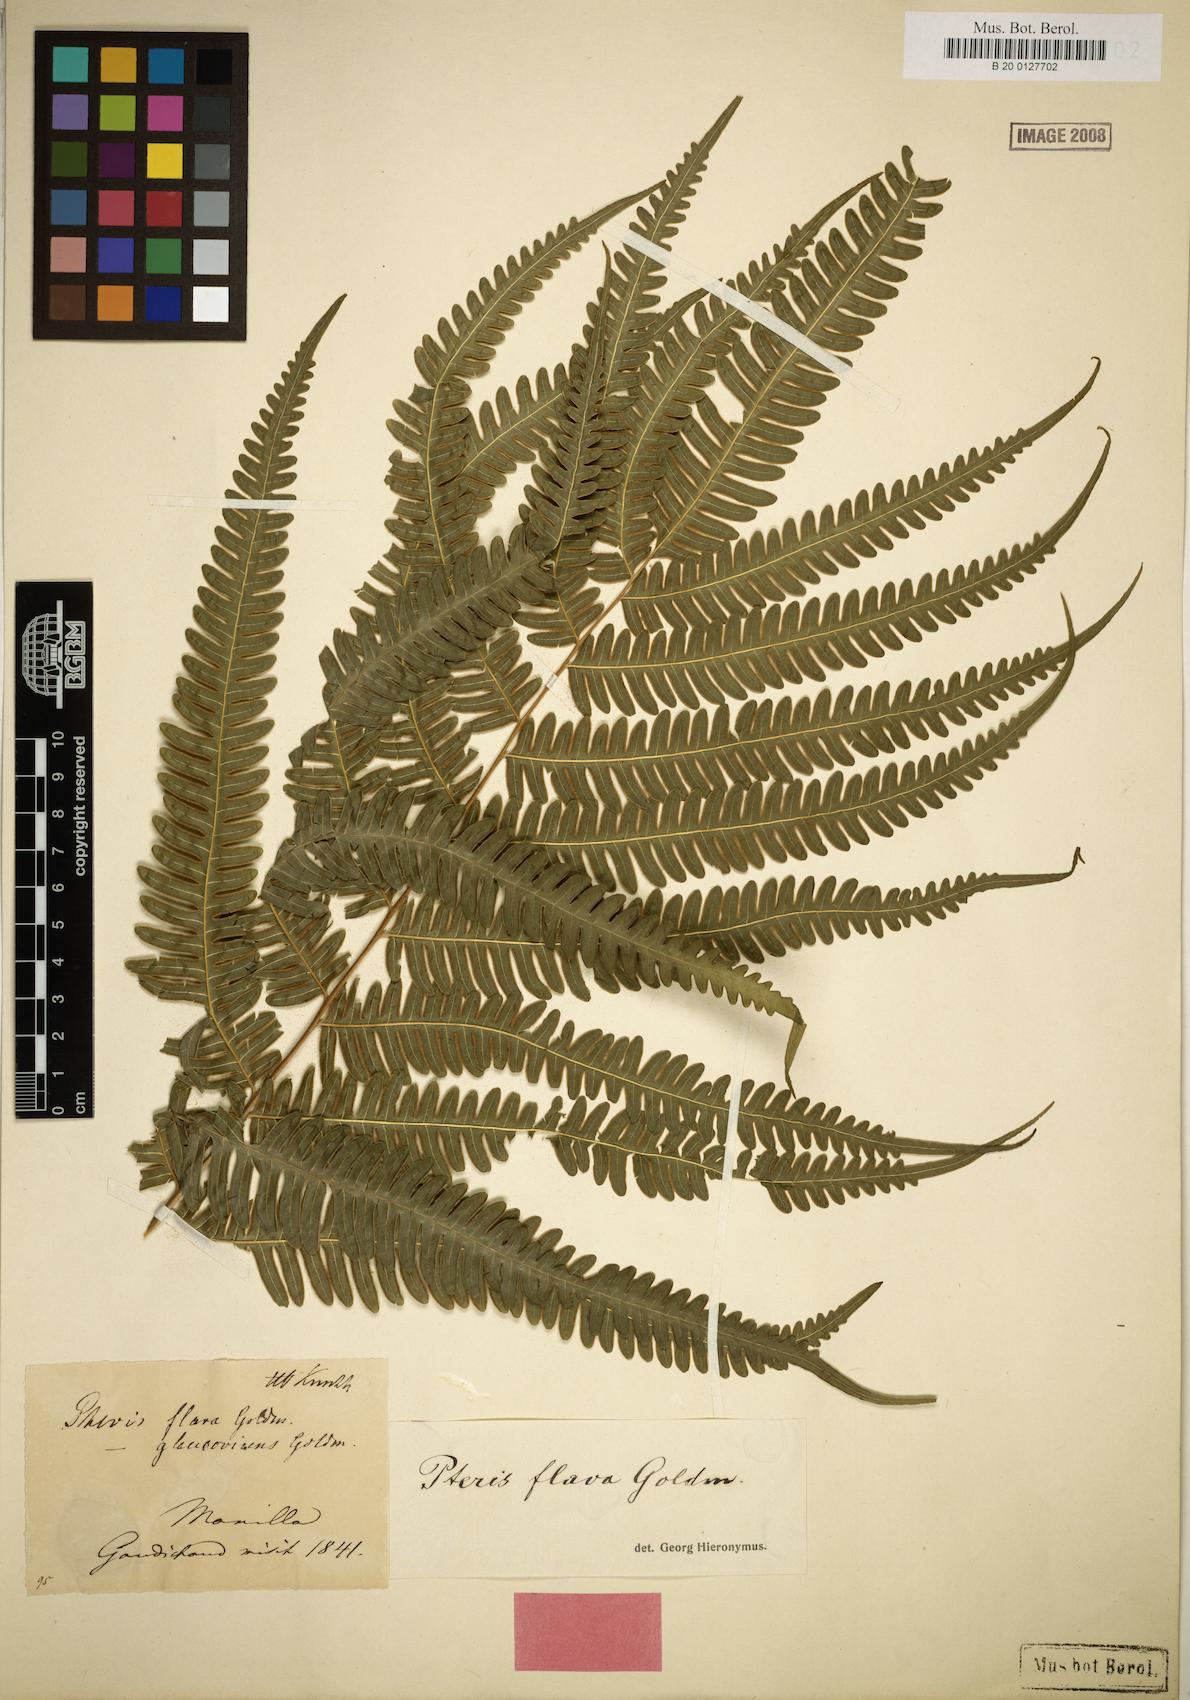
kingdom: Plantae
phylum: Tracheophyta
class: Polypodiopsida
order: Polypodiales
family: Pteridaceae
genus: Pteris
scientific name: Pteris glaucovirens
